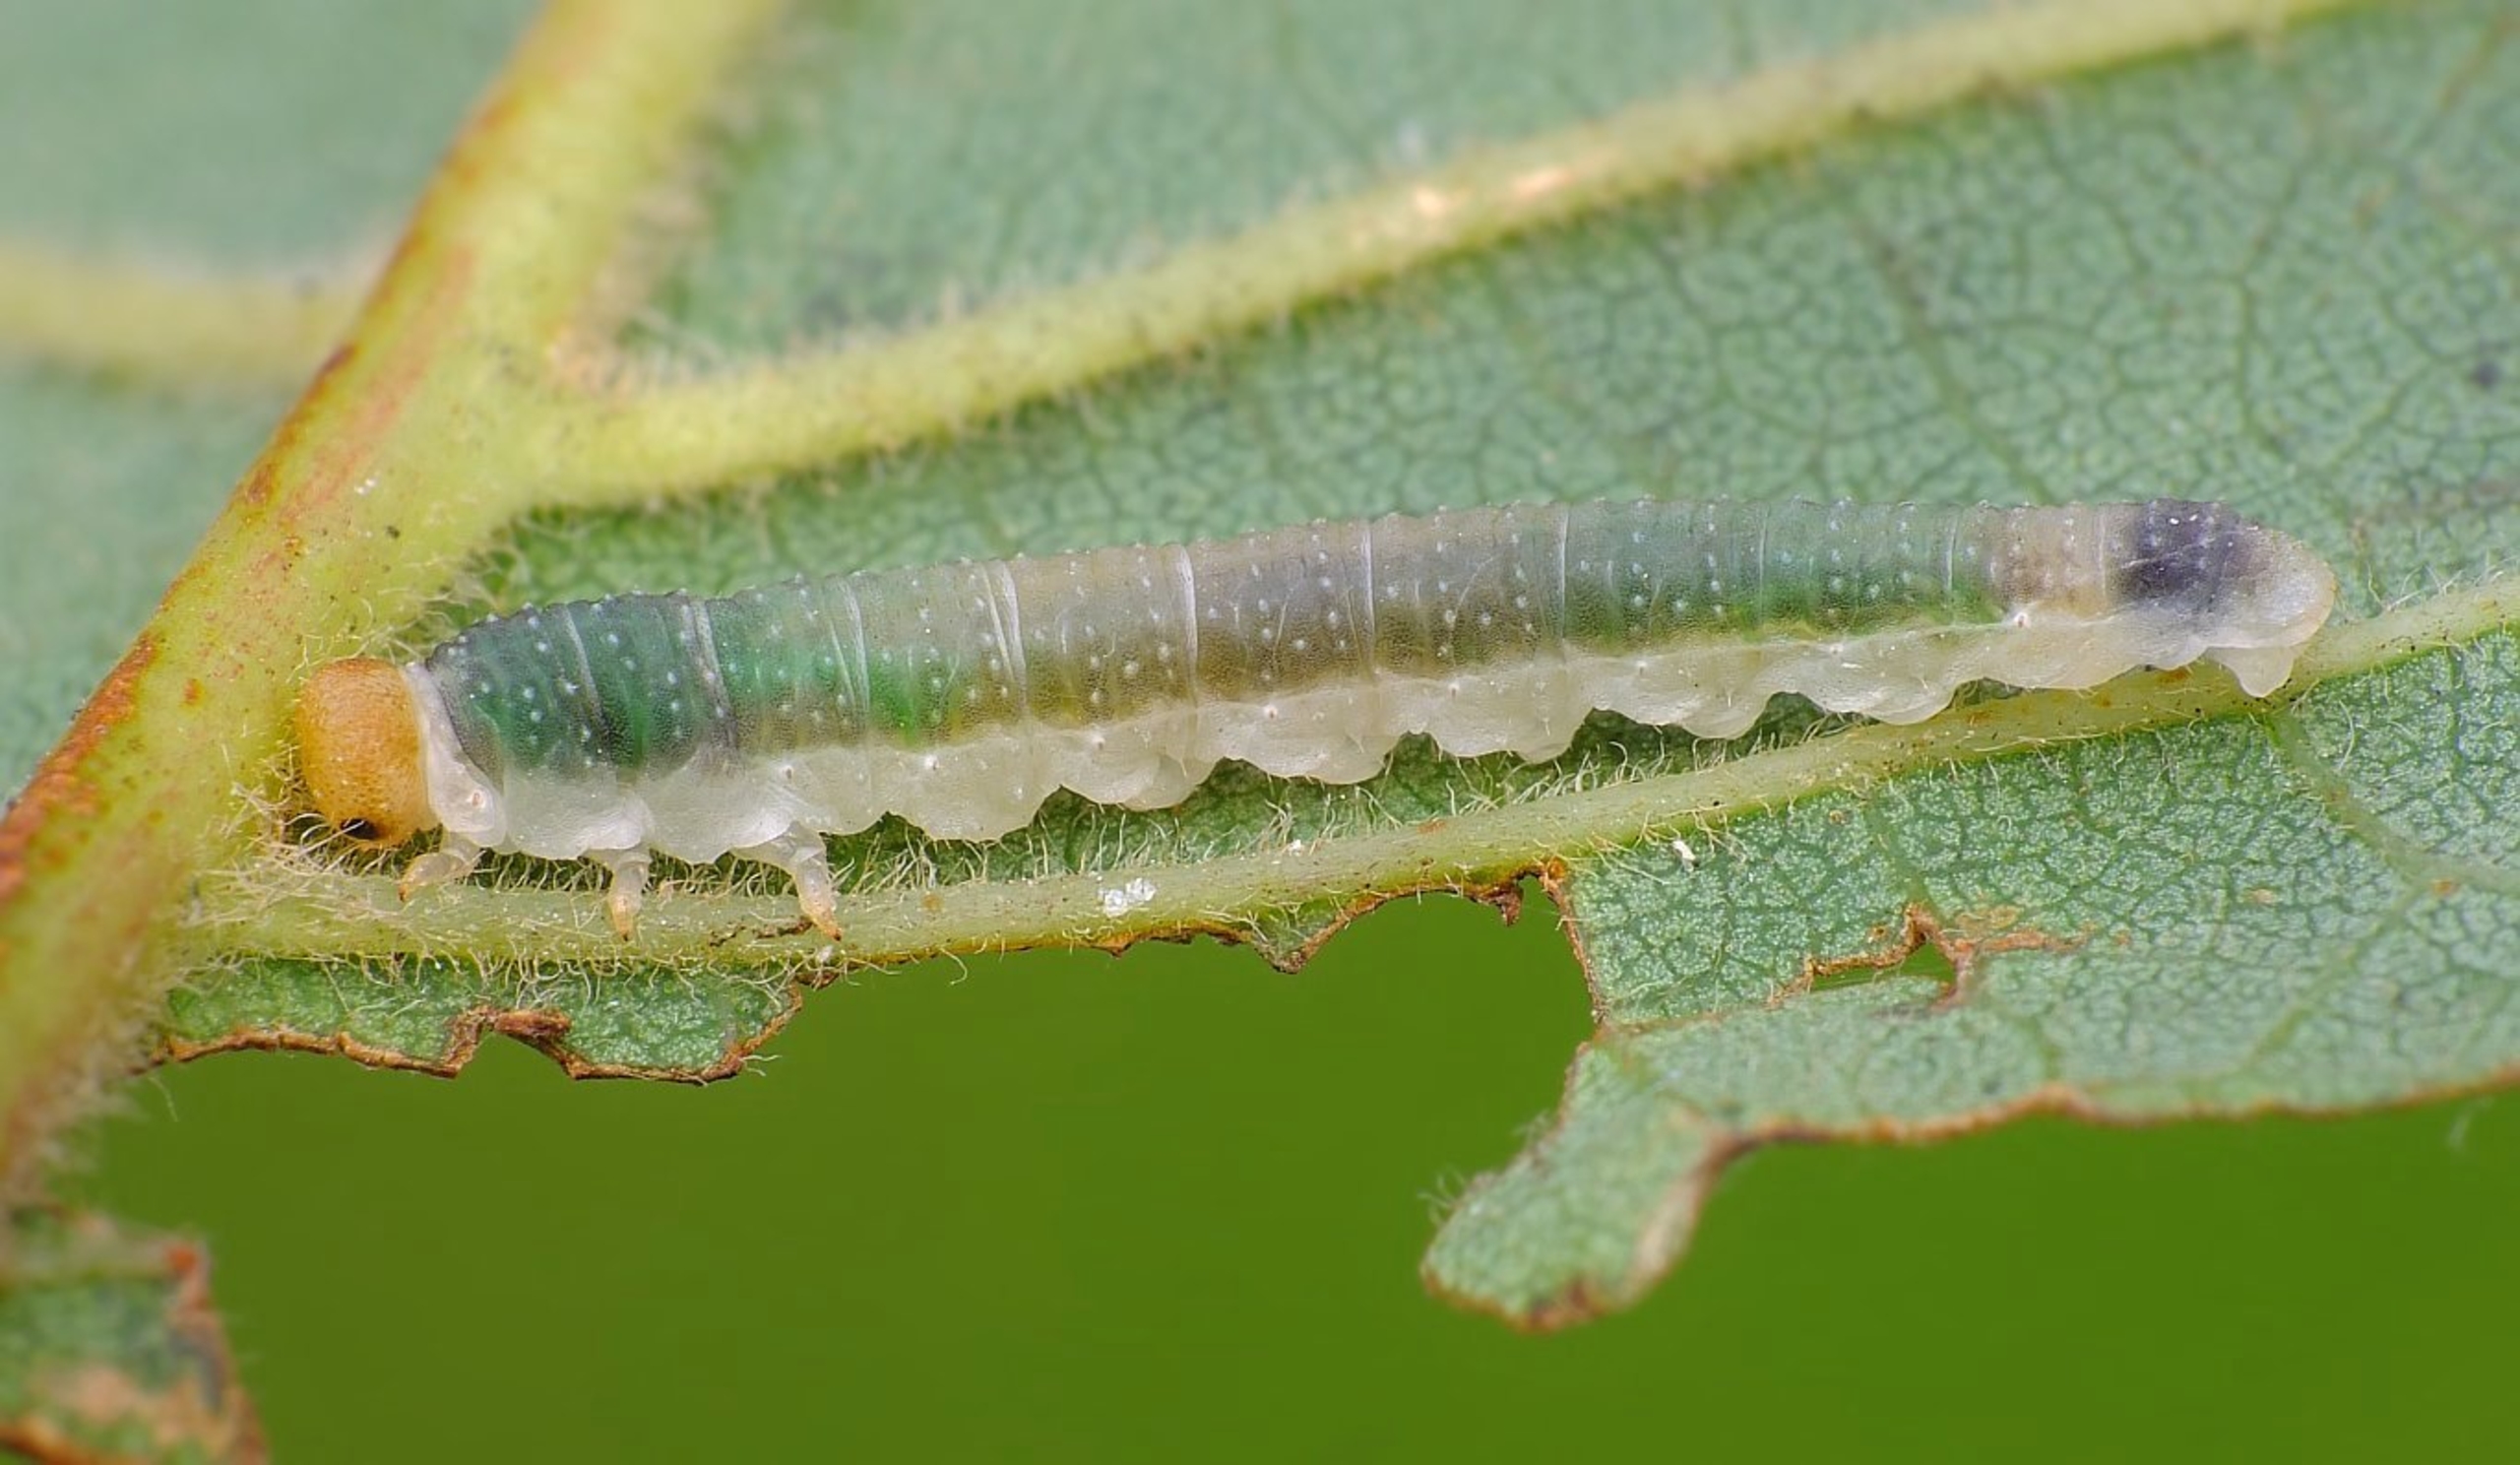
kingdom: Animalia
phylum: Arthropoda
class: Insecta
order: Hymenoptera
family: Tenthredinidae
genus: Nematinus
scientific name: Nematinus fuscipennis
